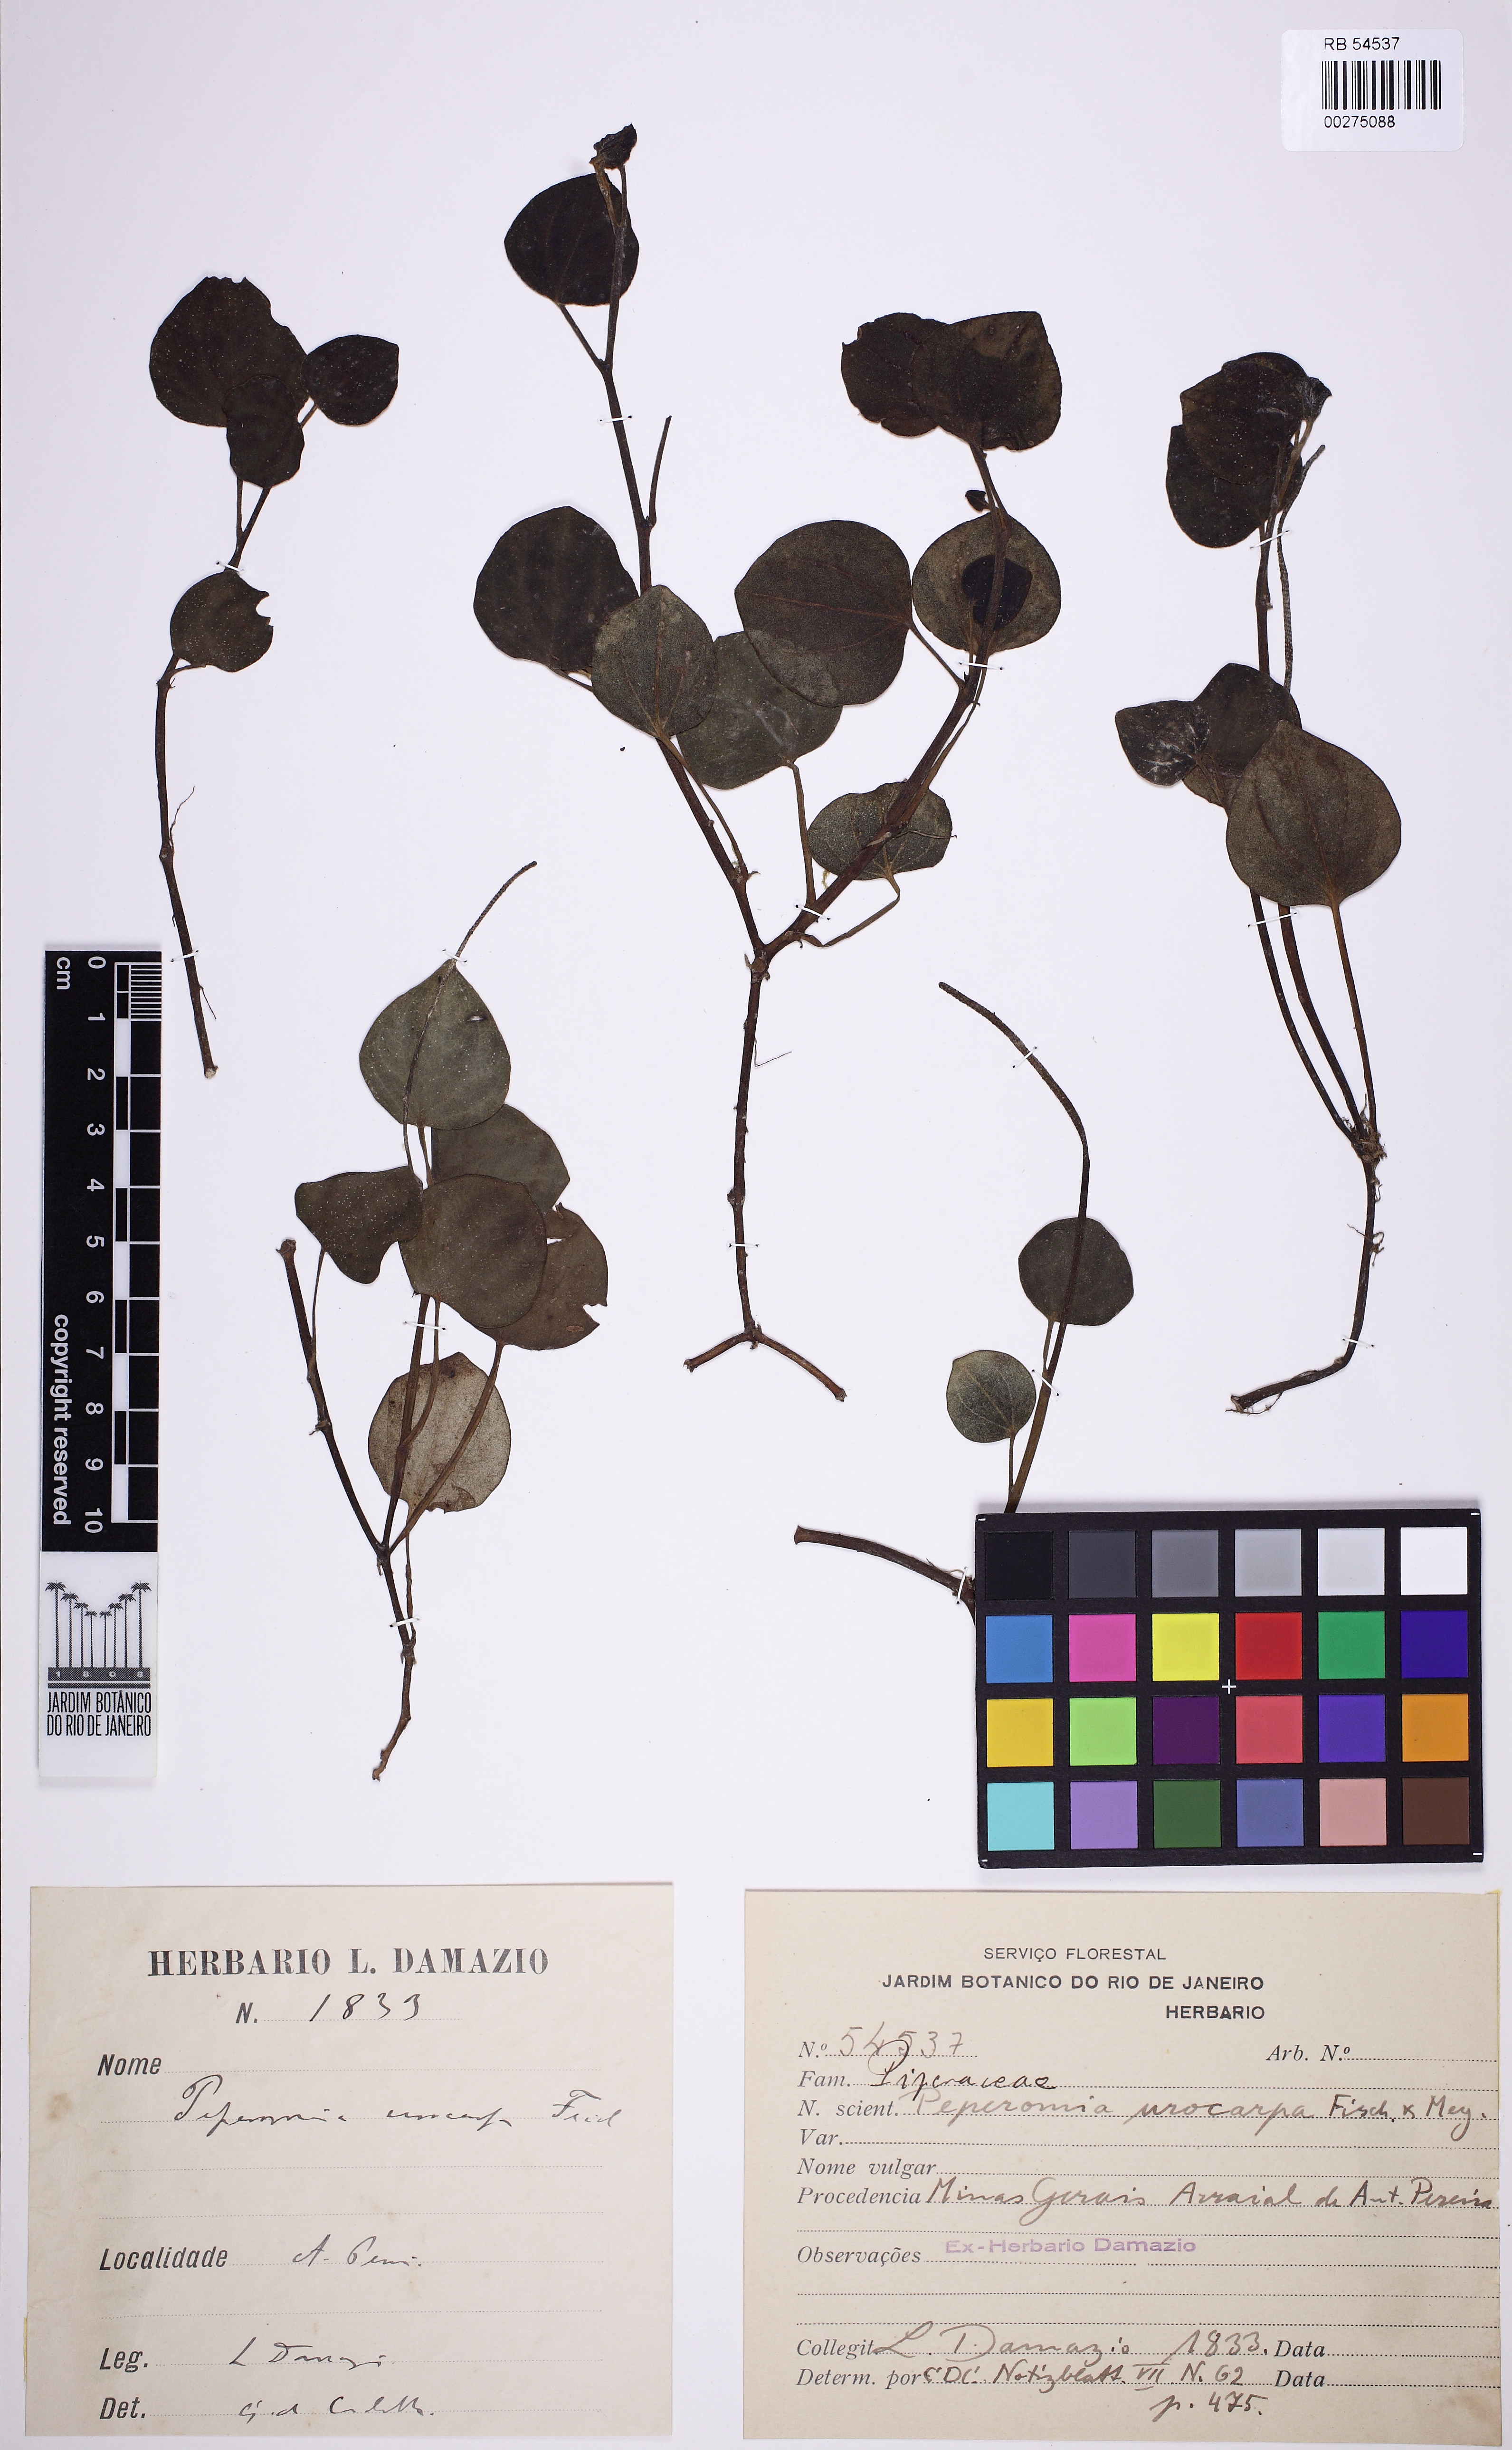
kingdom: Plantae
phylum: Tracheophyta
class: Magnoliopsida
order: Piperales
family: Piperaceae
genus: Peperomia
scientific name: Peperomia urocarpa
